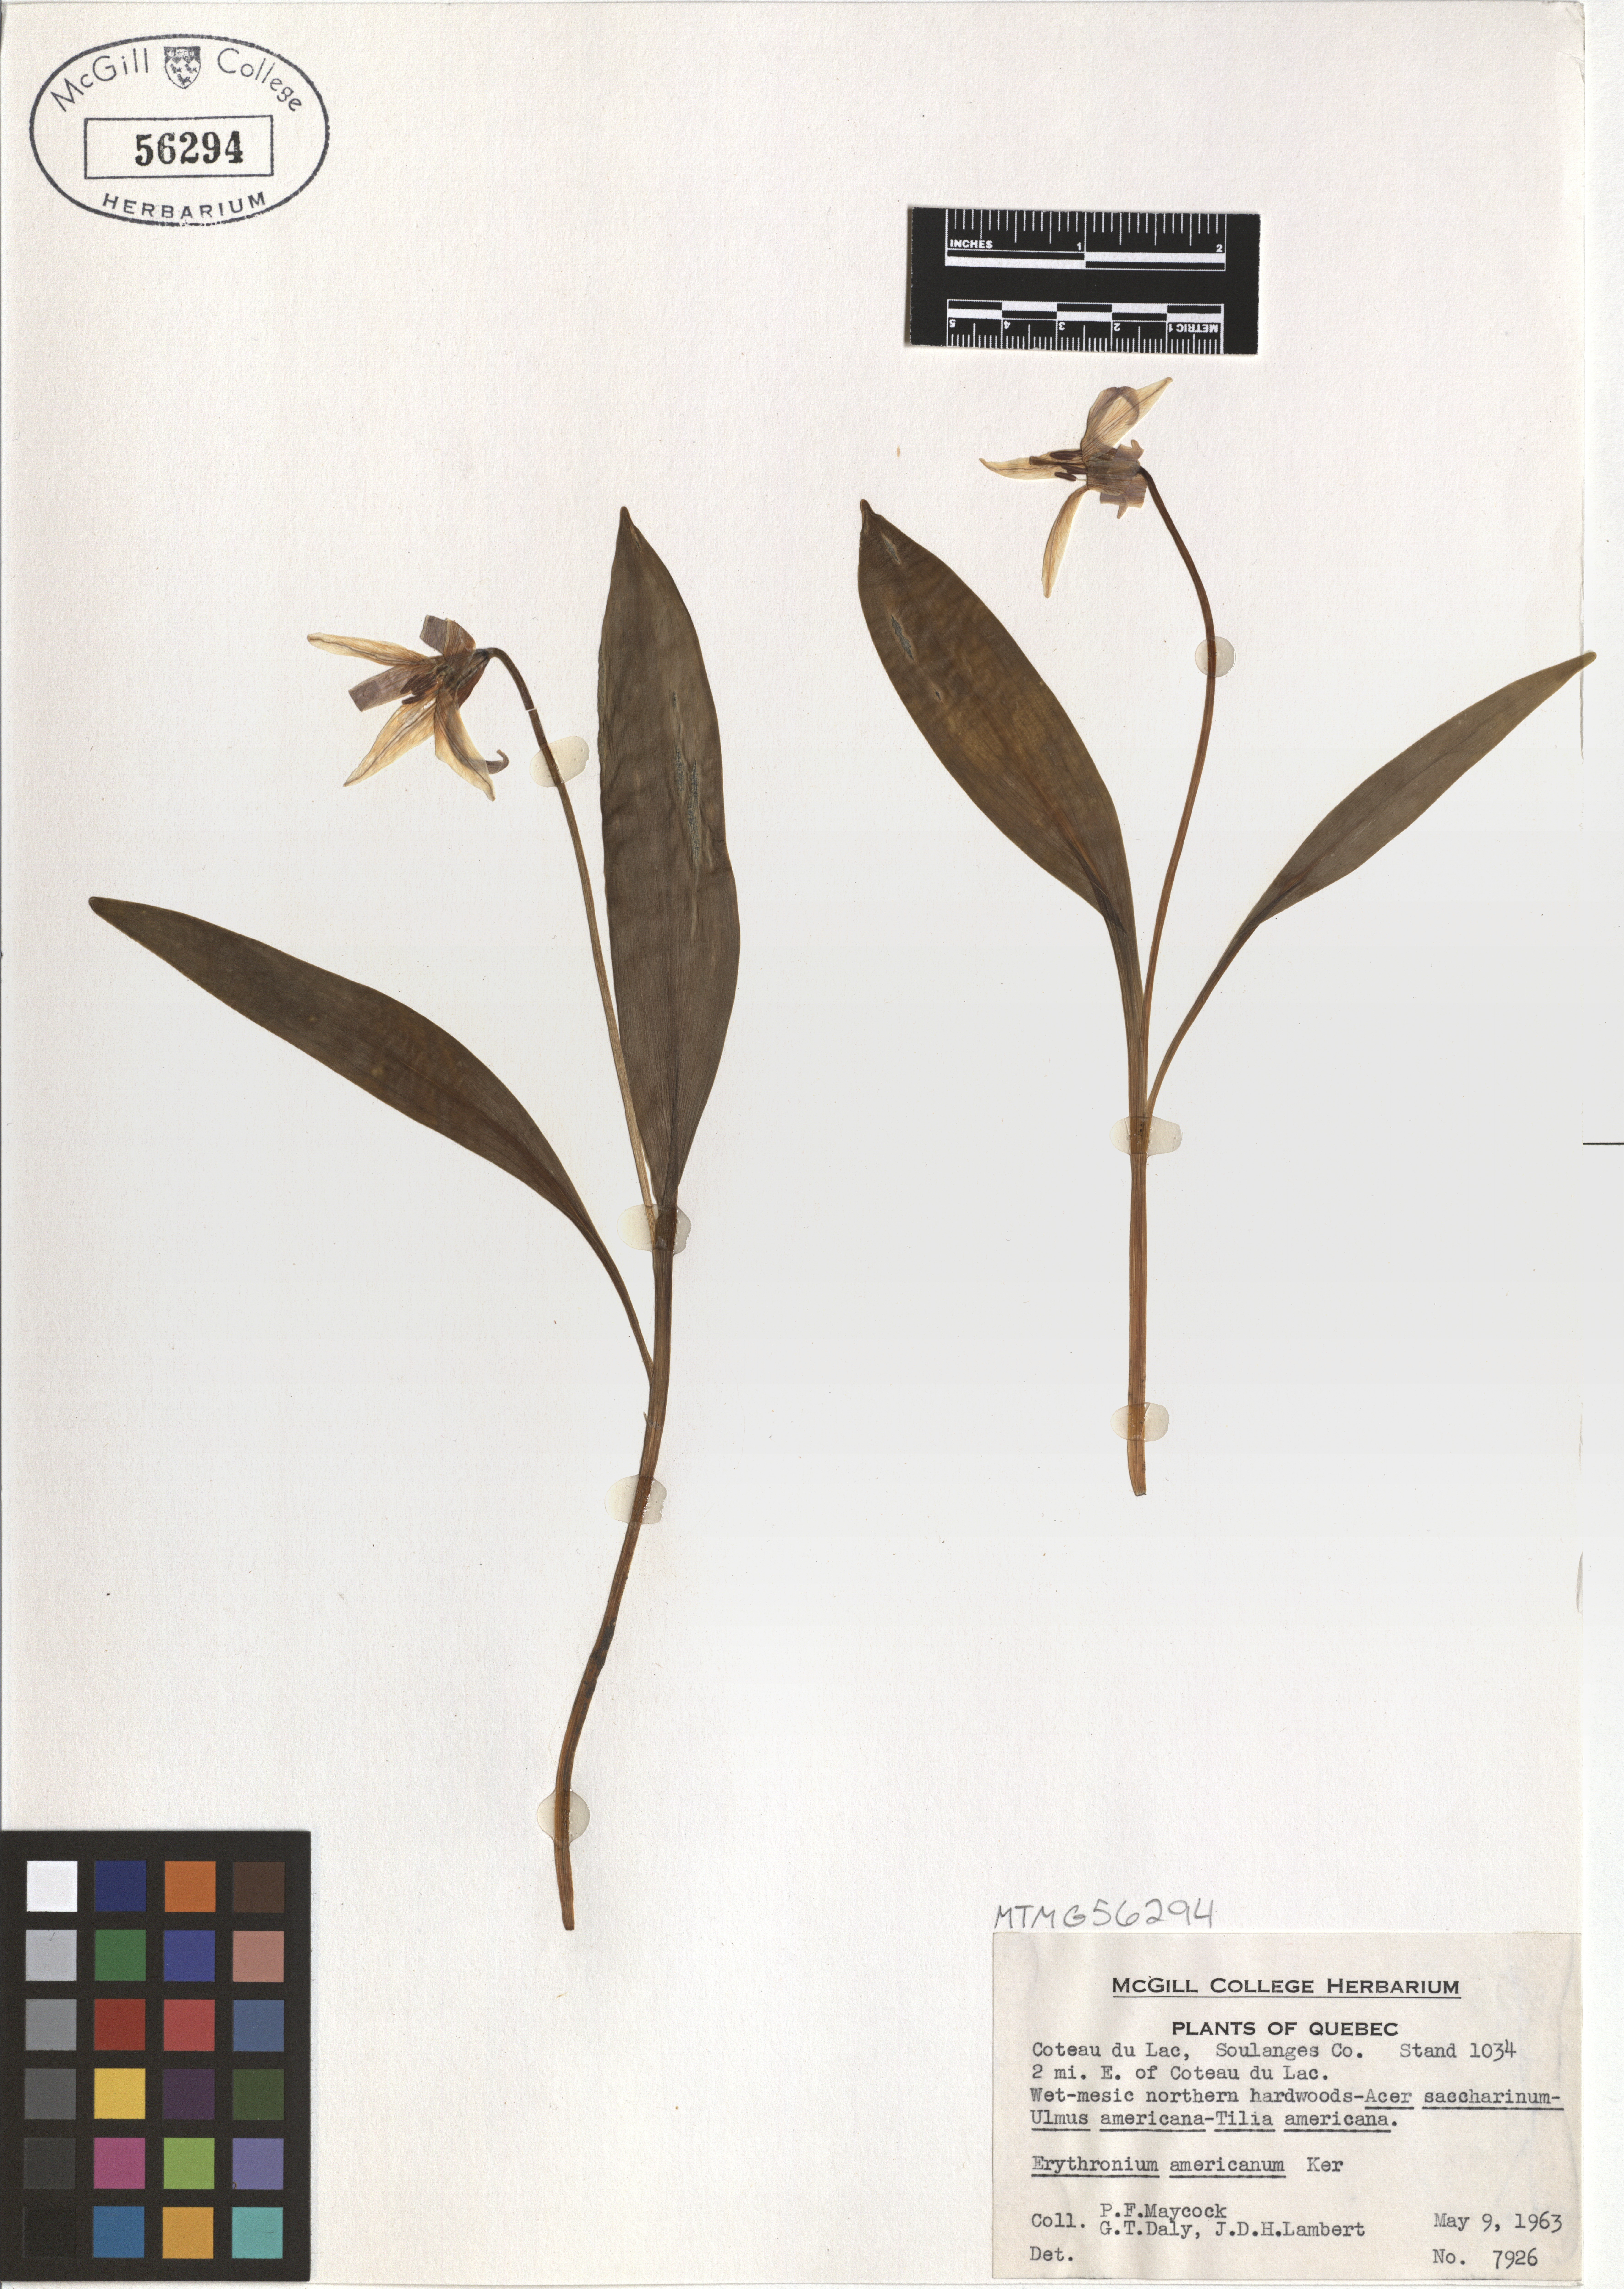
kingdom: Plantae
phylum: Tracheophyta
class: Liliopsida
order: Liliales
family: Liliaceae
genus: Erythronium
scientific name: Erythronium americanum
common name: Yellow adder's-tongue
